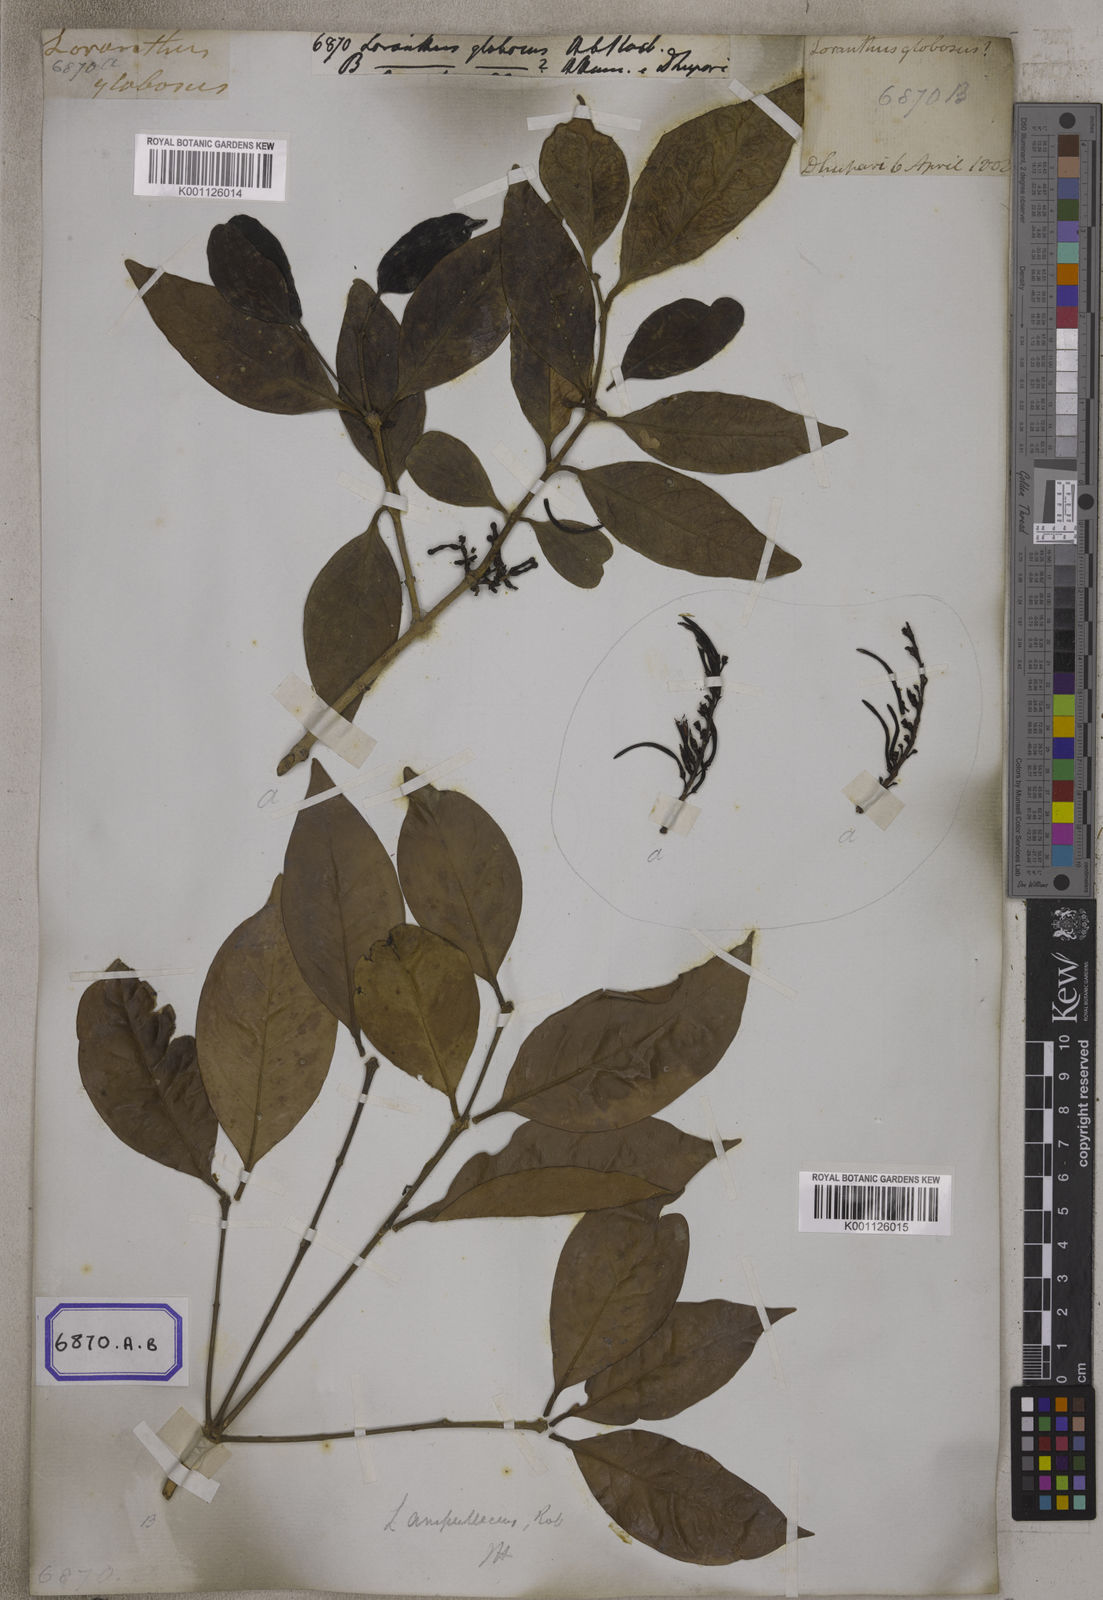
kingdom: Plantae
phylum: Tracheophyta
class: Magnoliopsida
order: Santalales
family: Loranthaceae
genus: Macrosolen
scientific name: Macrosolen globosus
